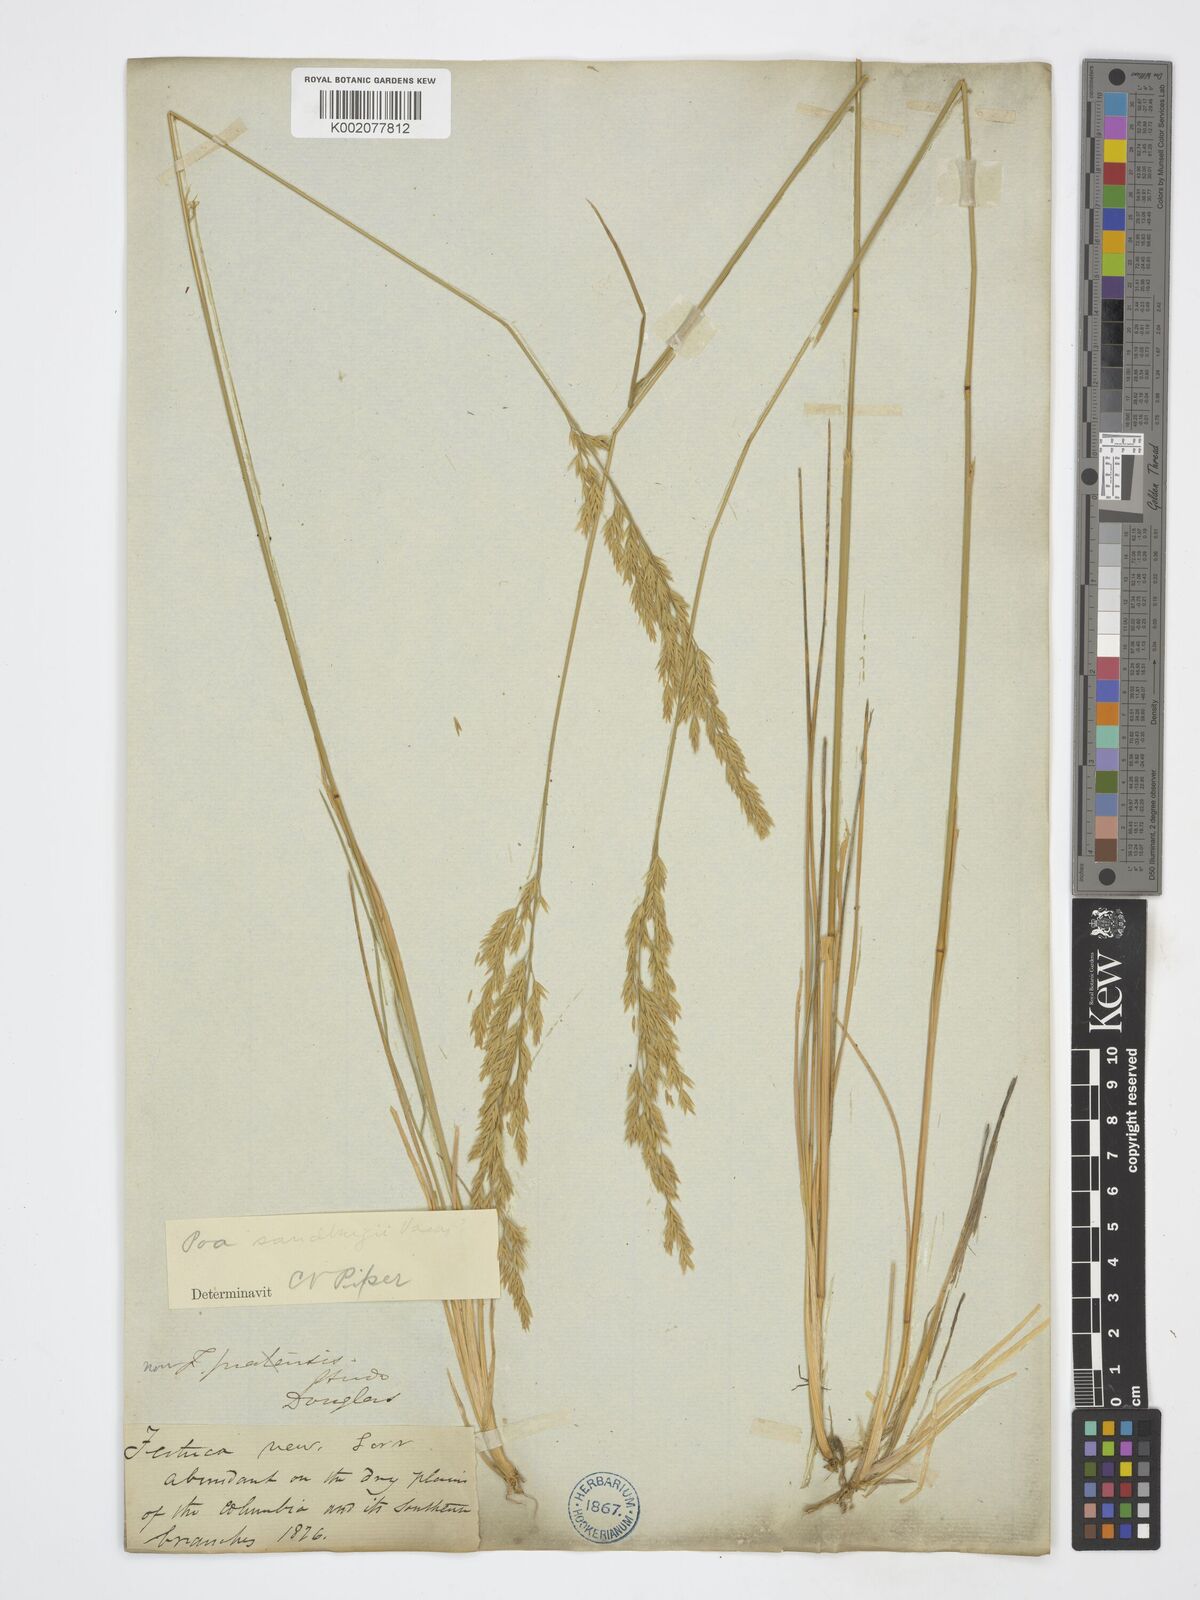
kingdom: Plantae
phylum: Tracheophyta
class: Liliopsida
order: Poales
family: Poaceae
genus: Poa
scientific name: Poa secunda
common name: Sandberg bluegrass
